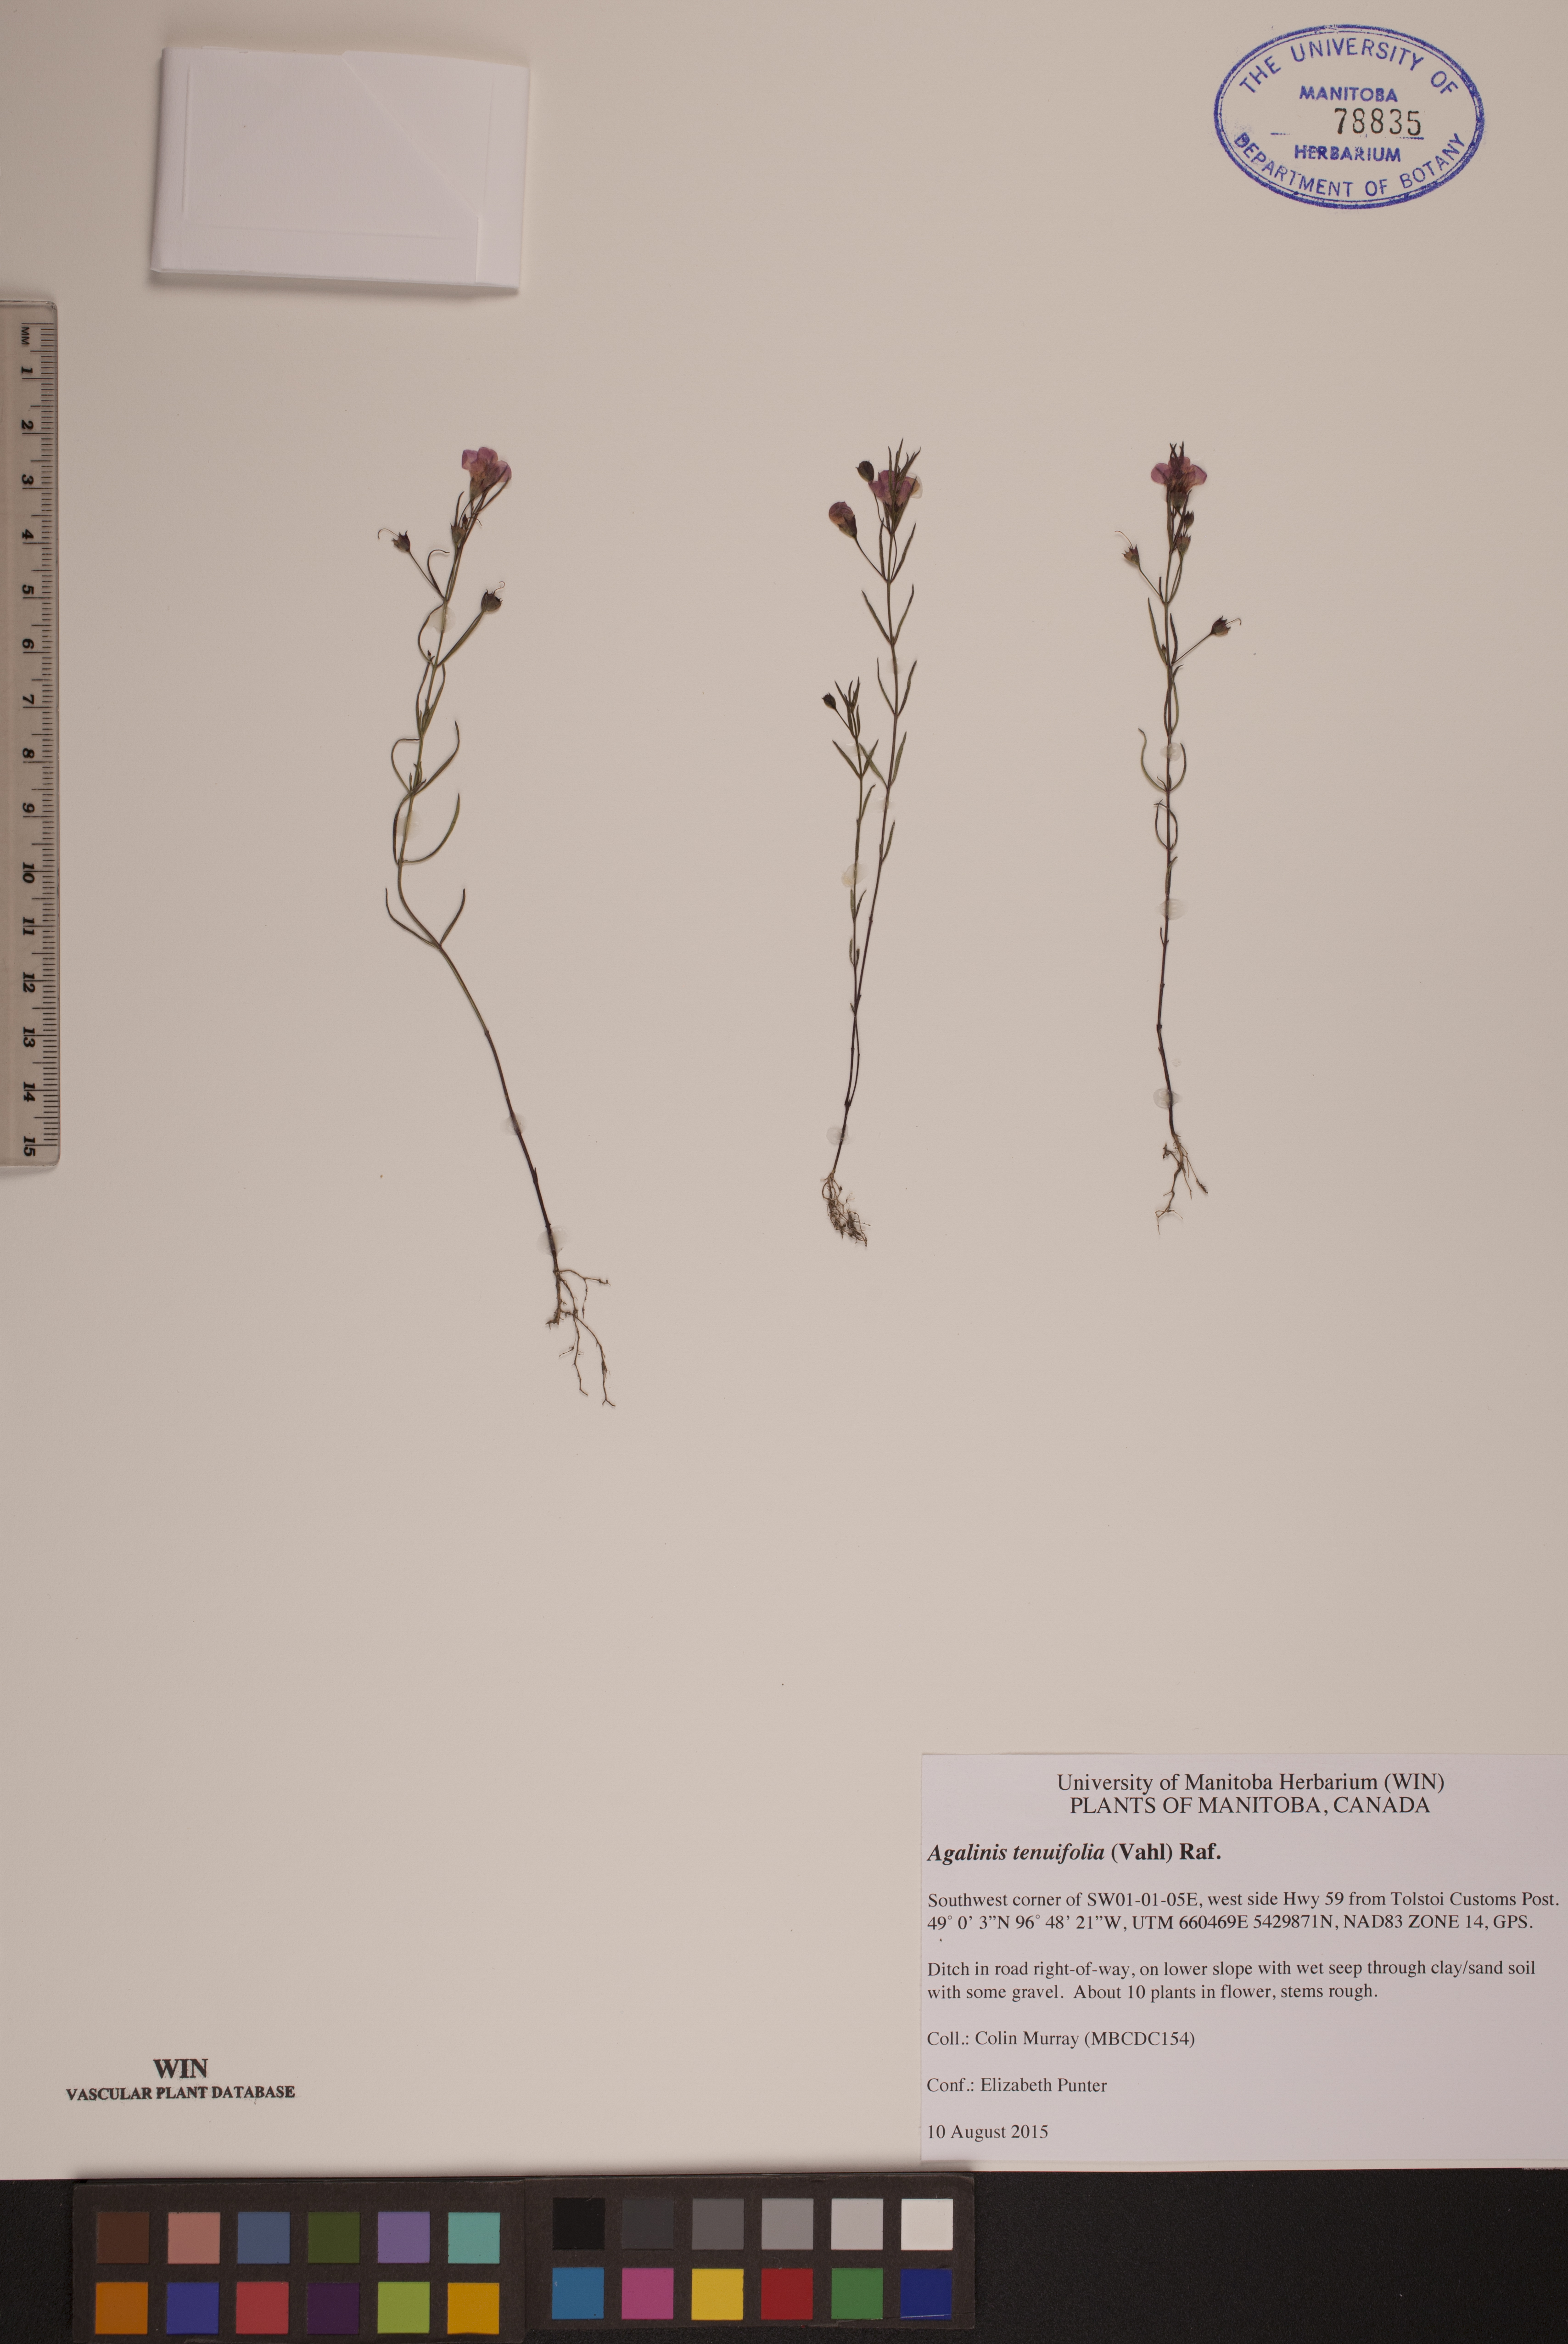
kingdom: Plantae
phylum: Tracheophyta
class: Magnoliopsida
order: Lamiales
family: Orobanchaceae
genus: Agalinis
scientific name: Agalinis tenuifolia
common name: Slender agalinis
